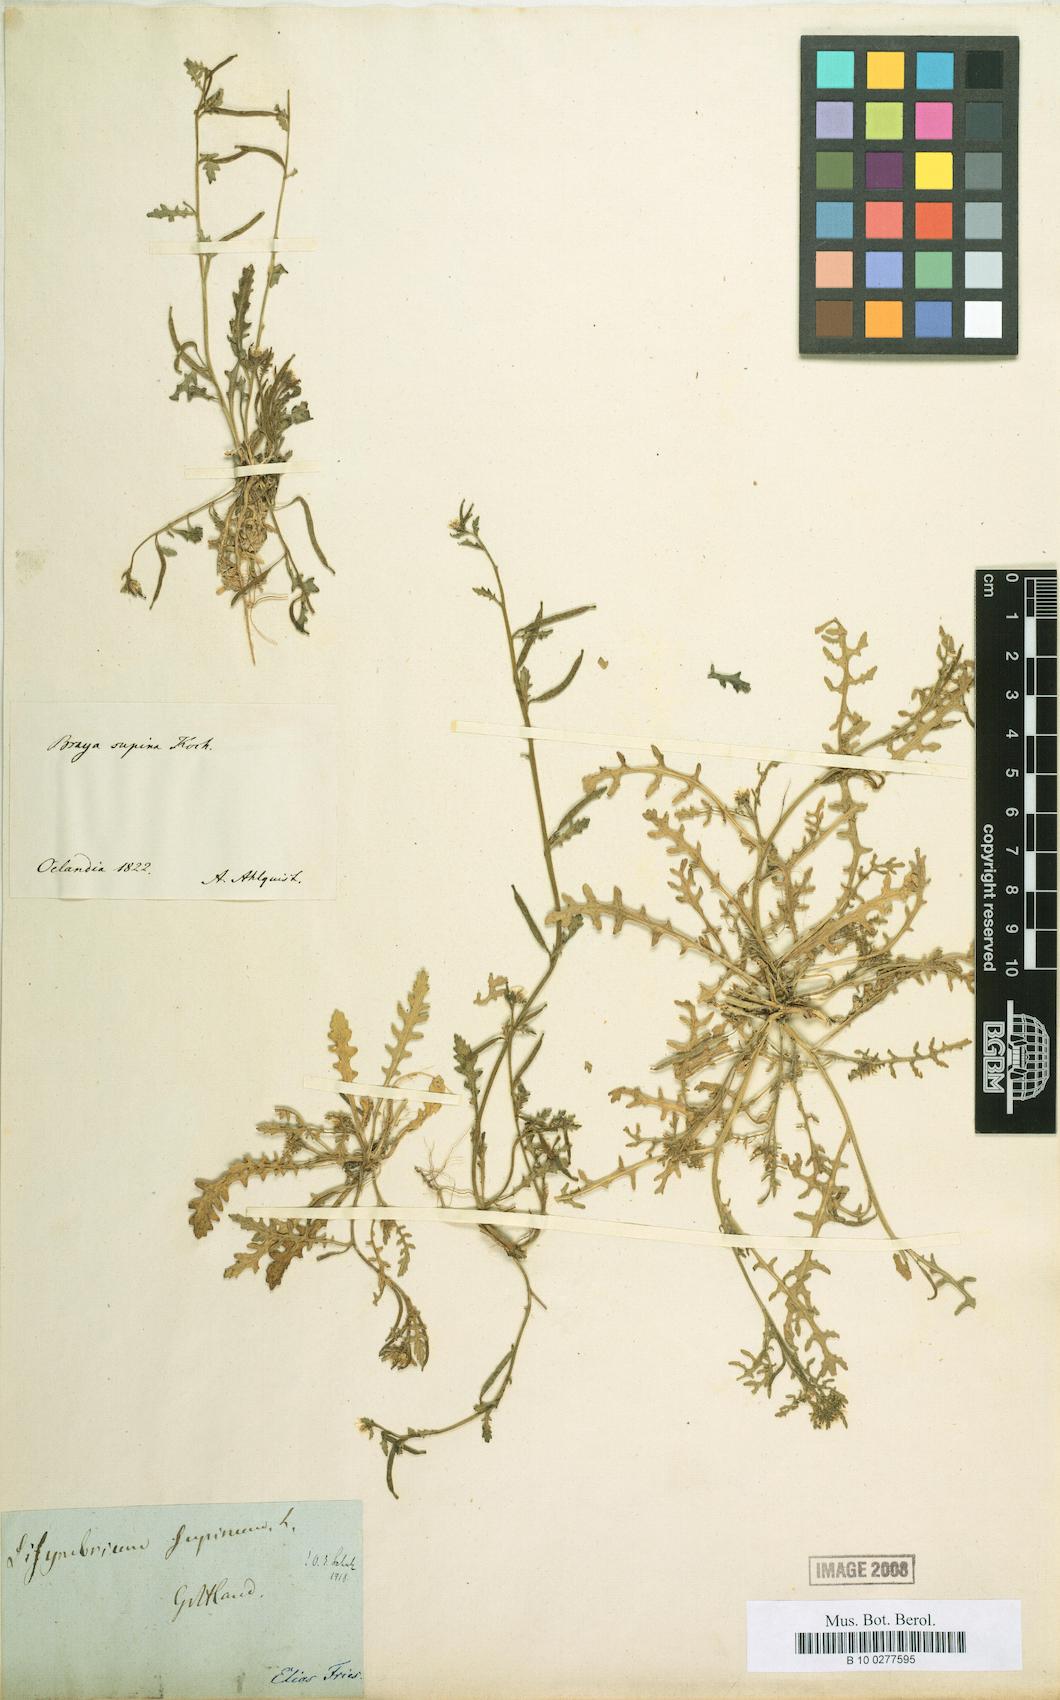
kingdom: Plantae
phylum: Tracheophyta
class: Magnoliopsida
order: Brassicales
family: Brassicaceae
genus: Erucastrum
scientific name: Erucastrum supinum
